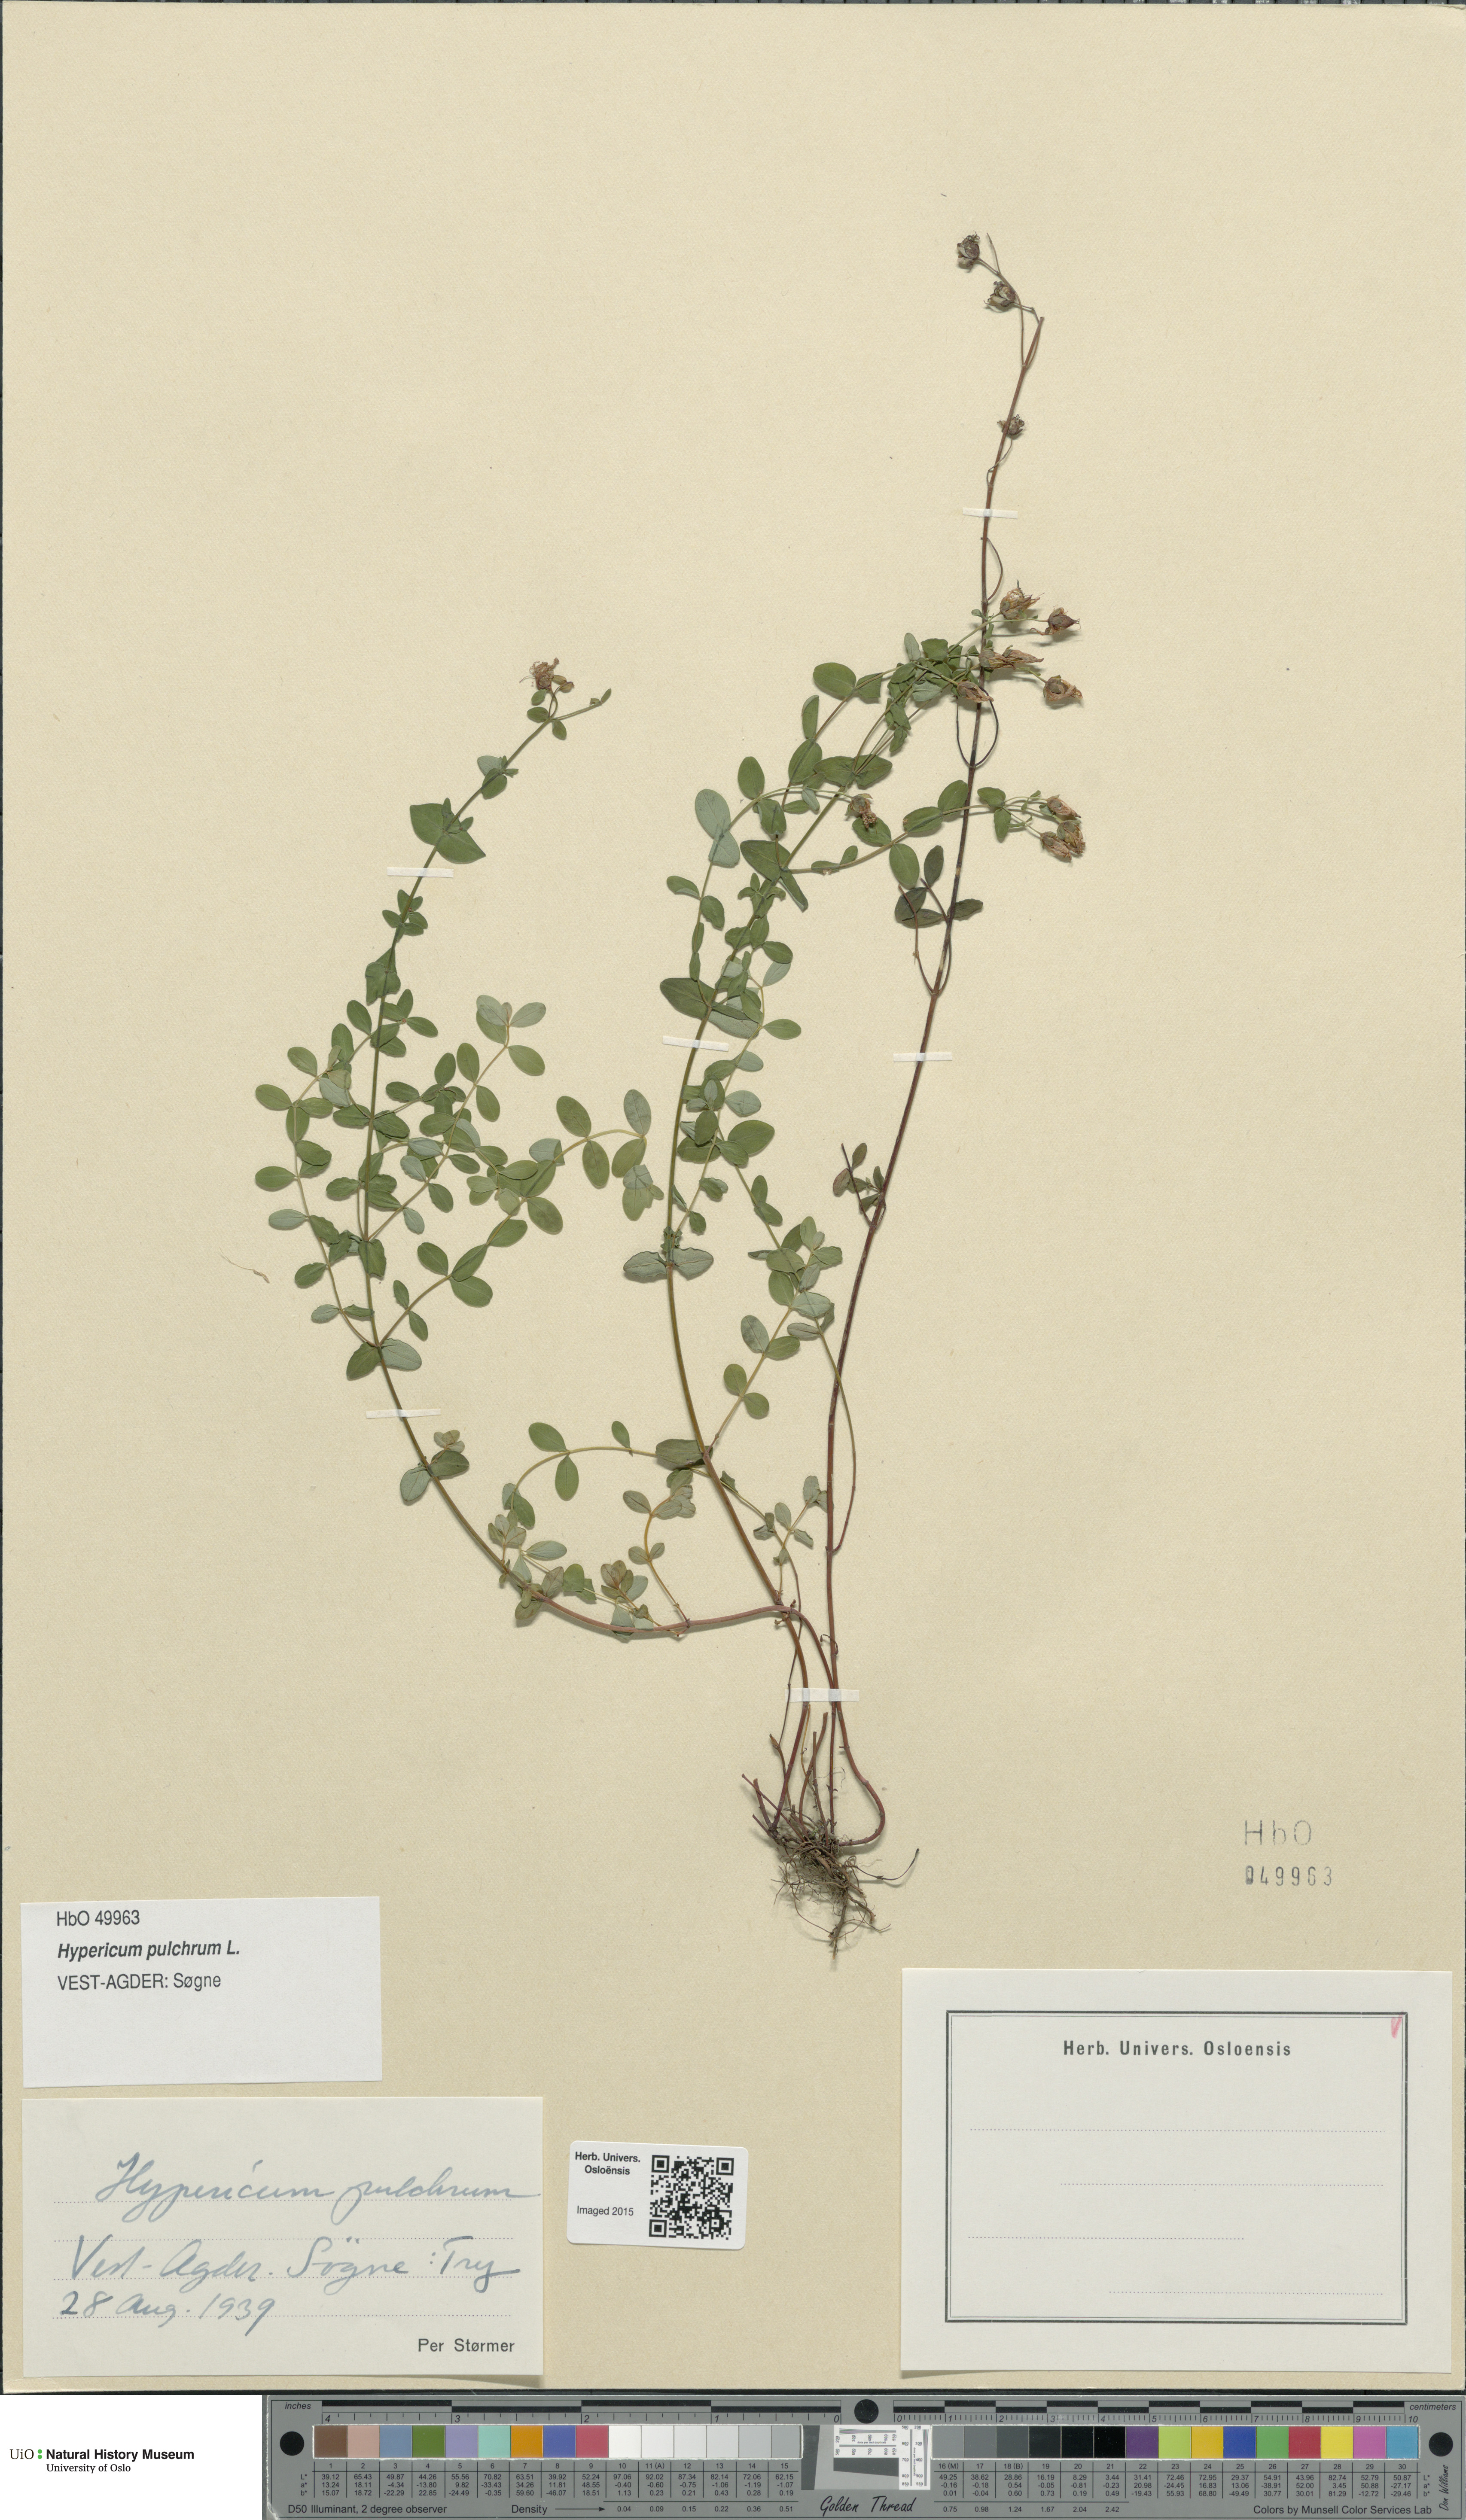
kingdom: Plantae
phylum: Tracheophyta
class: Magnoliopsida
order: Malpighiales
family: Hypericaceae
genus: Hypericum
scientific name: Hypericum pulchrum
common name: Slender st. john's-wort
